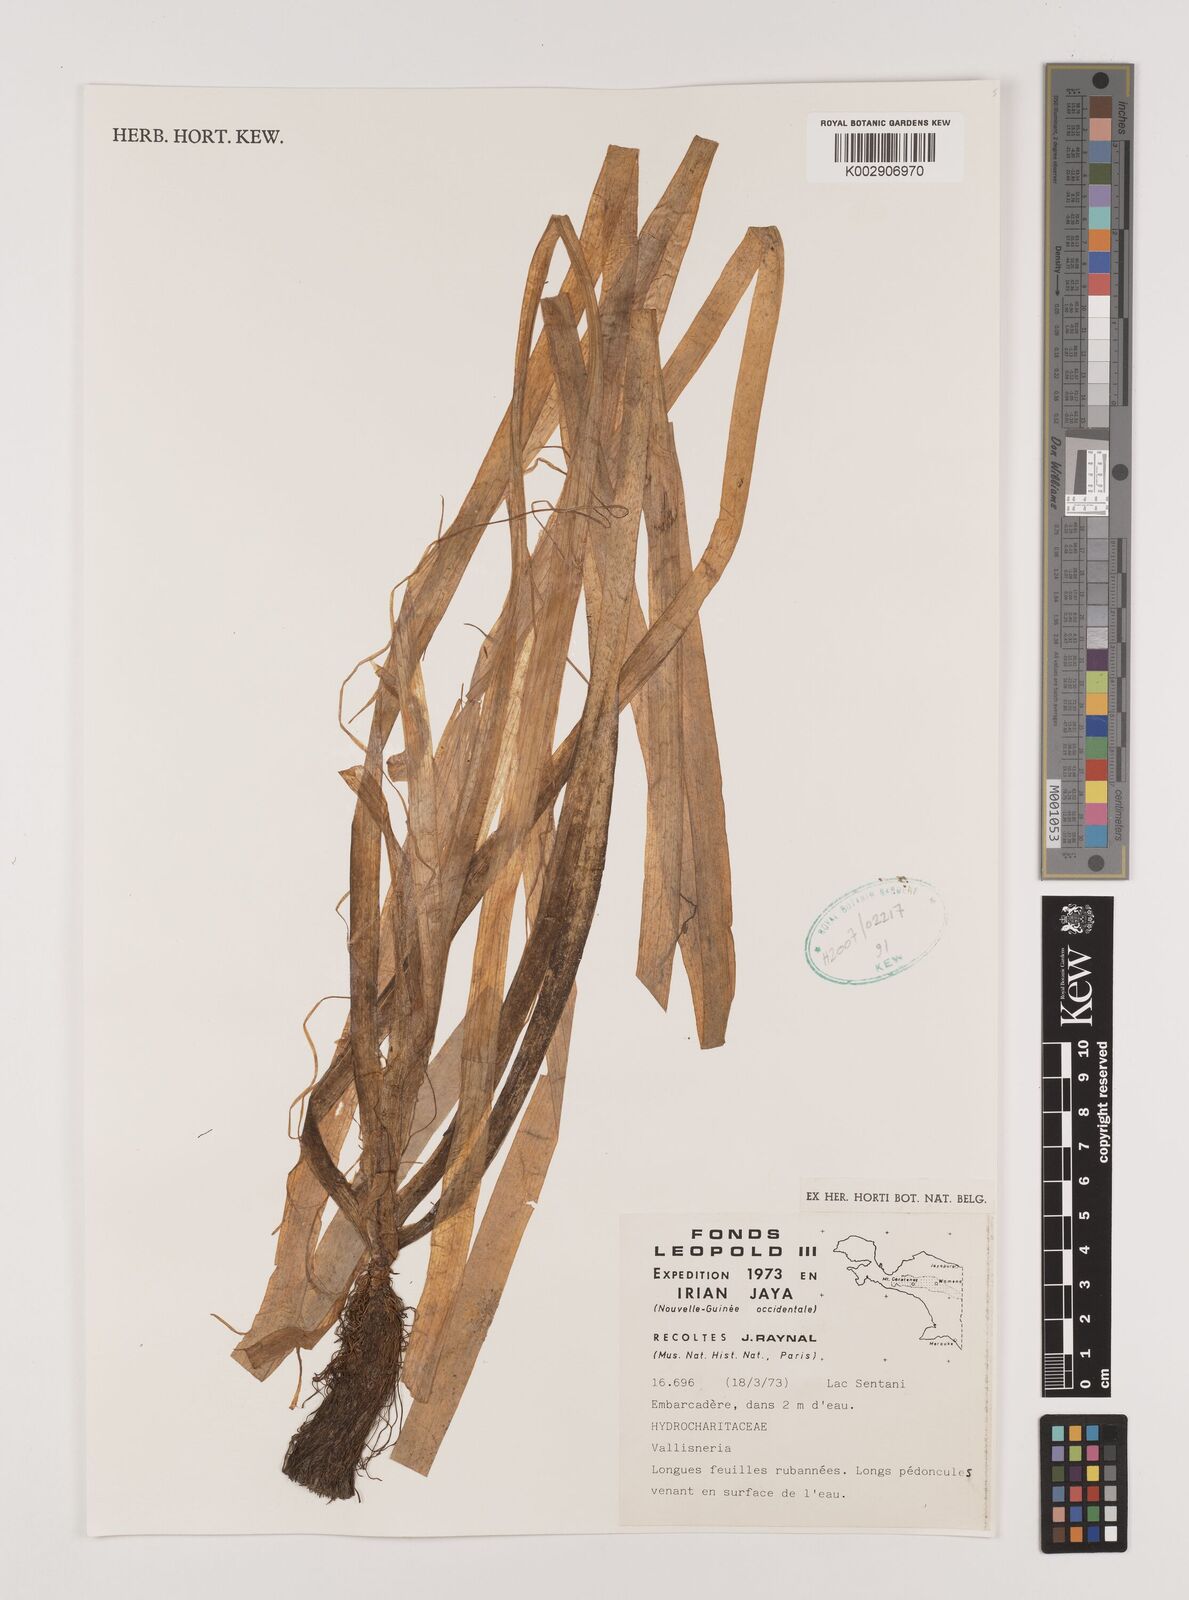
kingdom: Plantae
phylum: Tracheophyta
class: Liliopsida
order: Alismatales
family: Hydrocharitaceae
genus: Vallisneria
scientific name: Vallisneria
